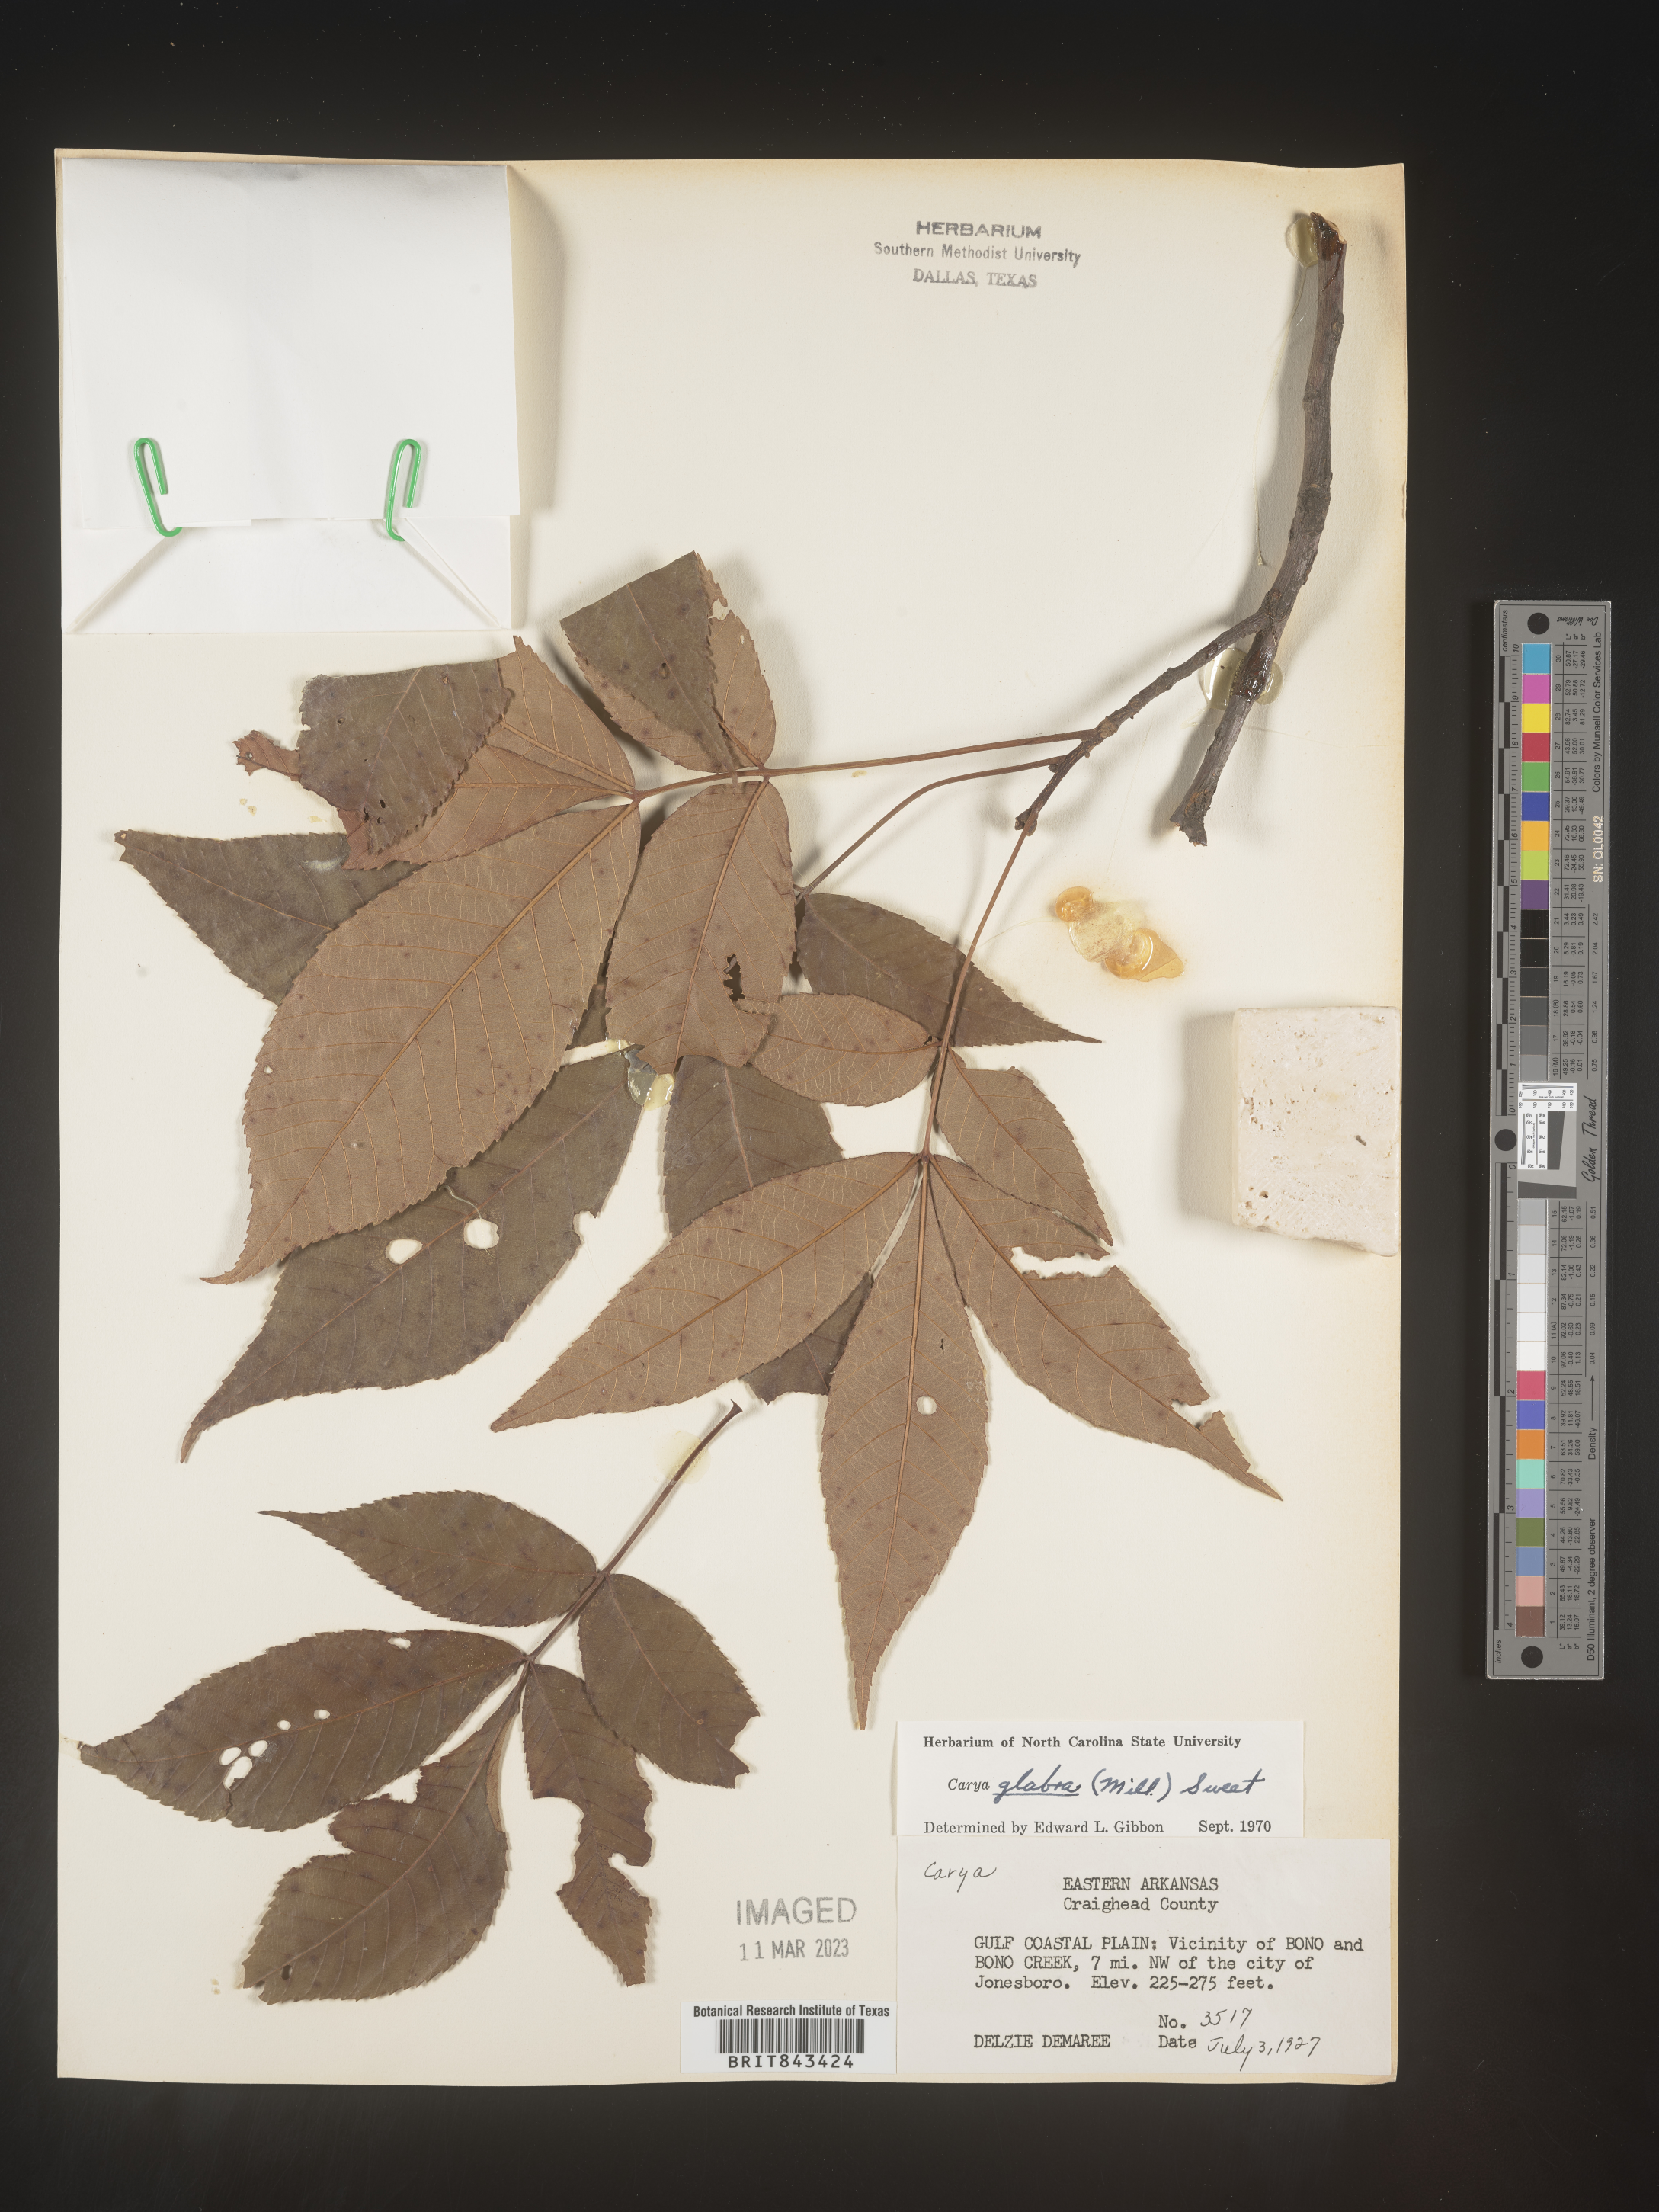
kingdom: Plantae
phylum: Tracheophyta
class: Magnoliopsida
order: Fagales
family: Juglandaceae
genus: Carya
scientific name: Carya glabra
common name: Pignut hickory
